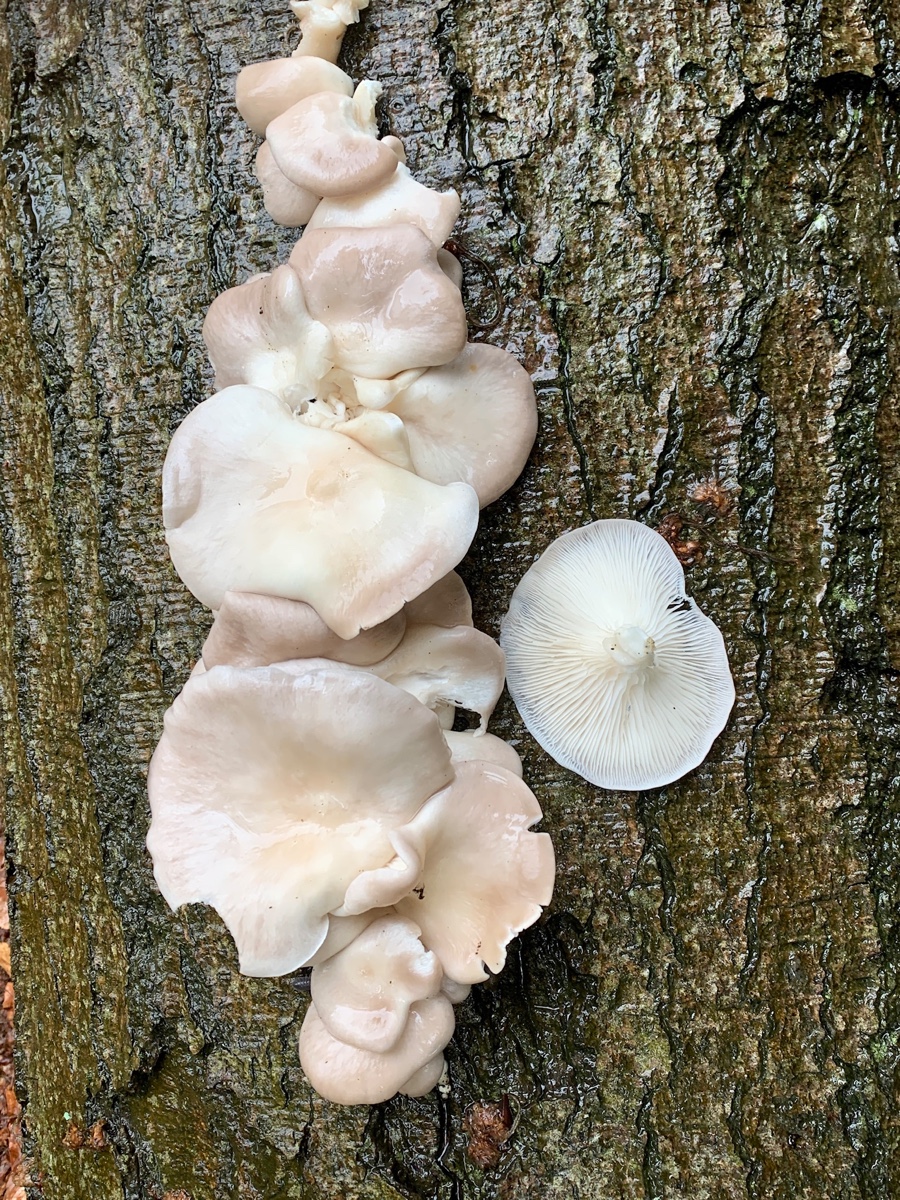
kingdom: Fungi
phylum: Basidiomycota
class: Agaricomycetes
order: Agaricales
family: Pleurotaceae
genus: Pleurotus
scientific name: Pleurotus pulmonarius
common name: sommer-østershat
